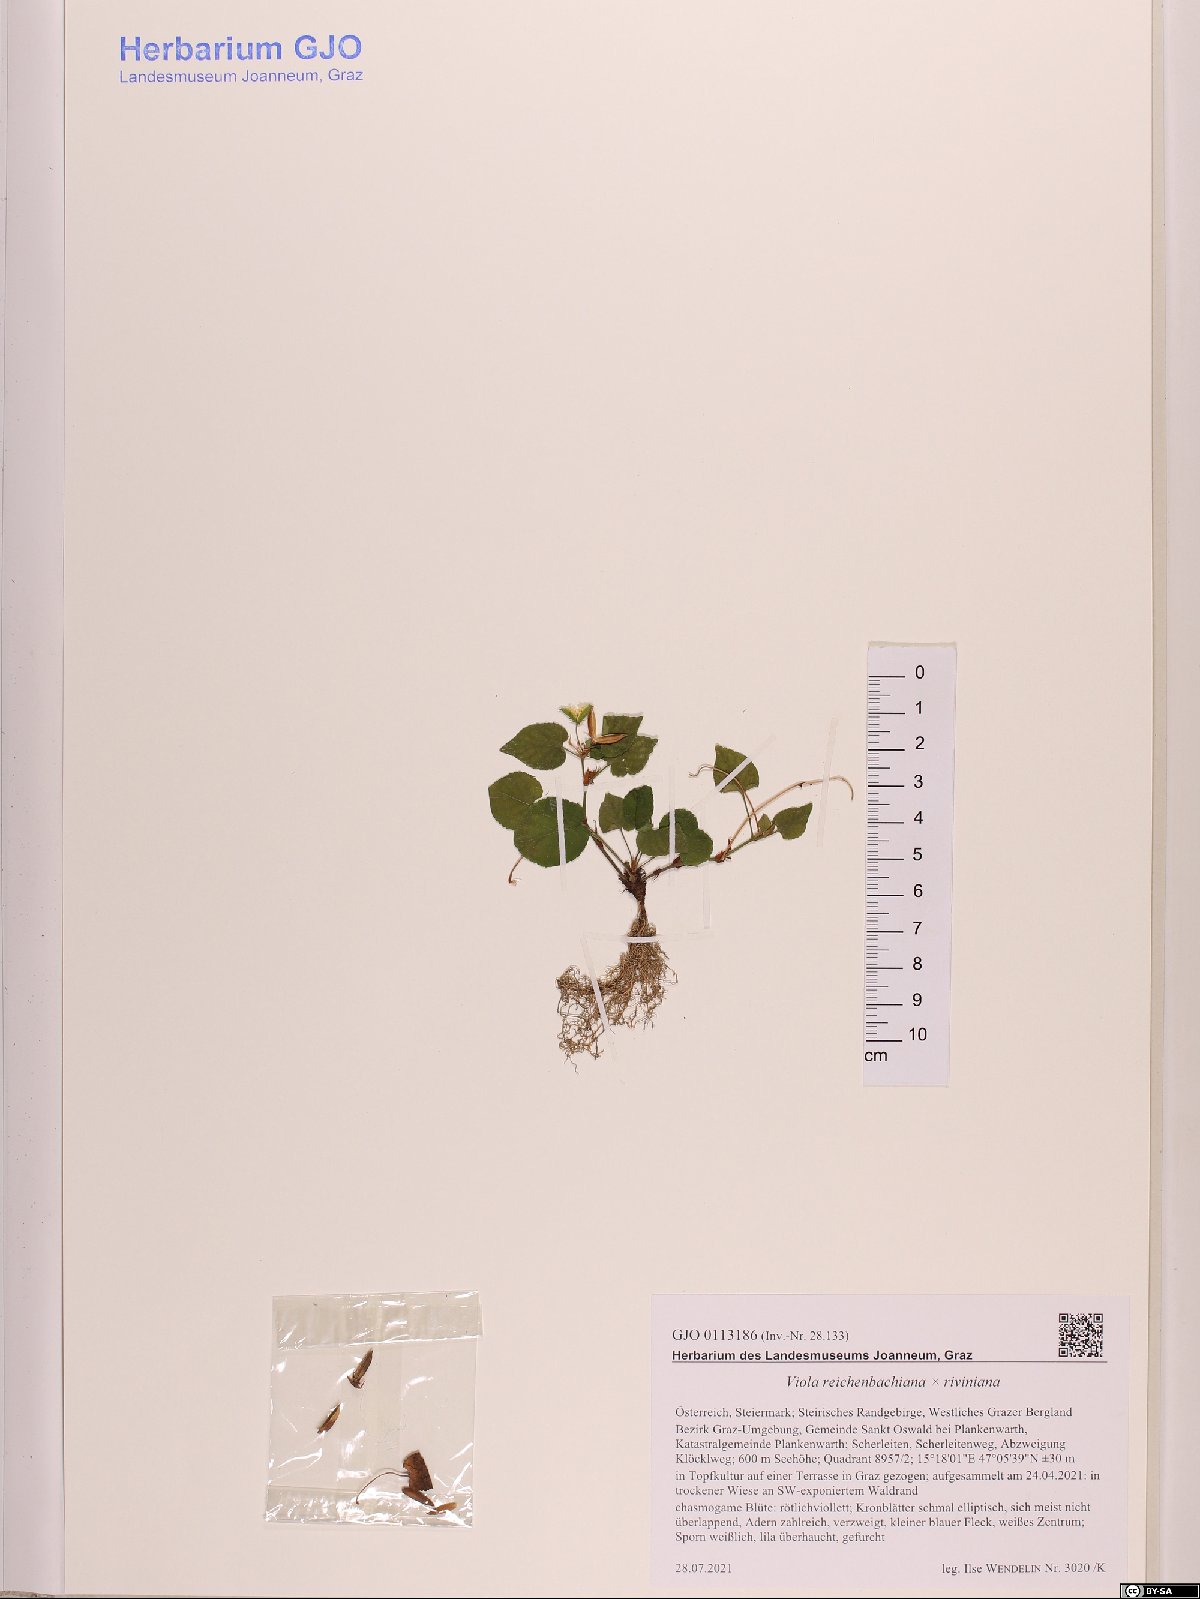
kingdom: Plantae
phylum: Tracheophyta
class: Magnoliopsida
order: Malpighiales
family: Violaceae
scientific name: Violaceae
